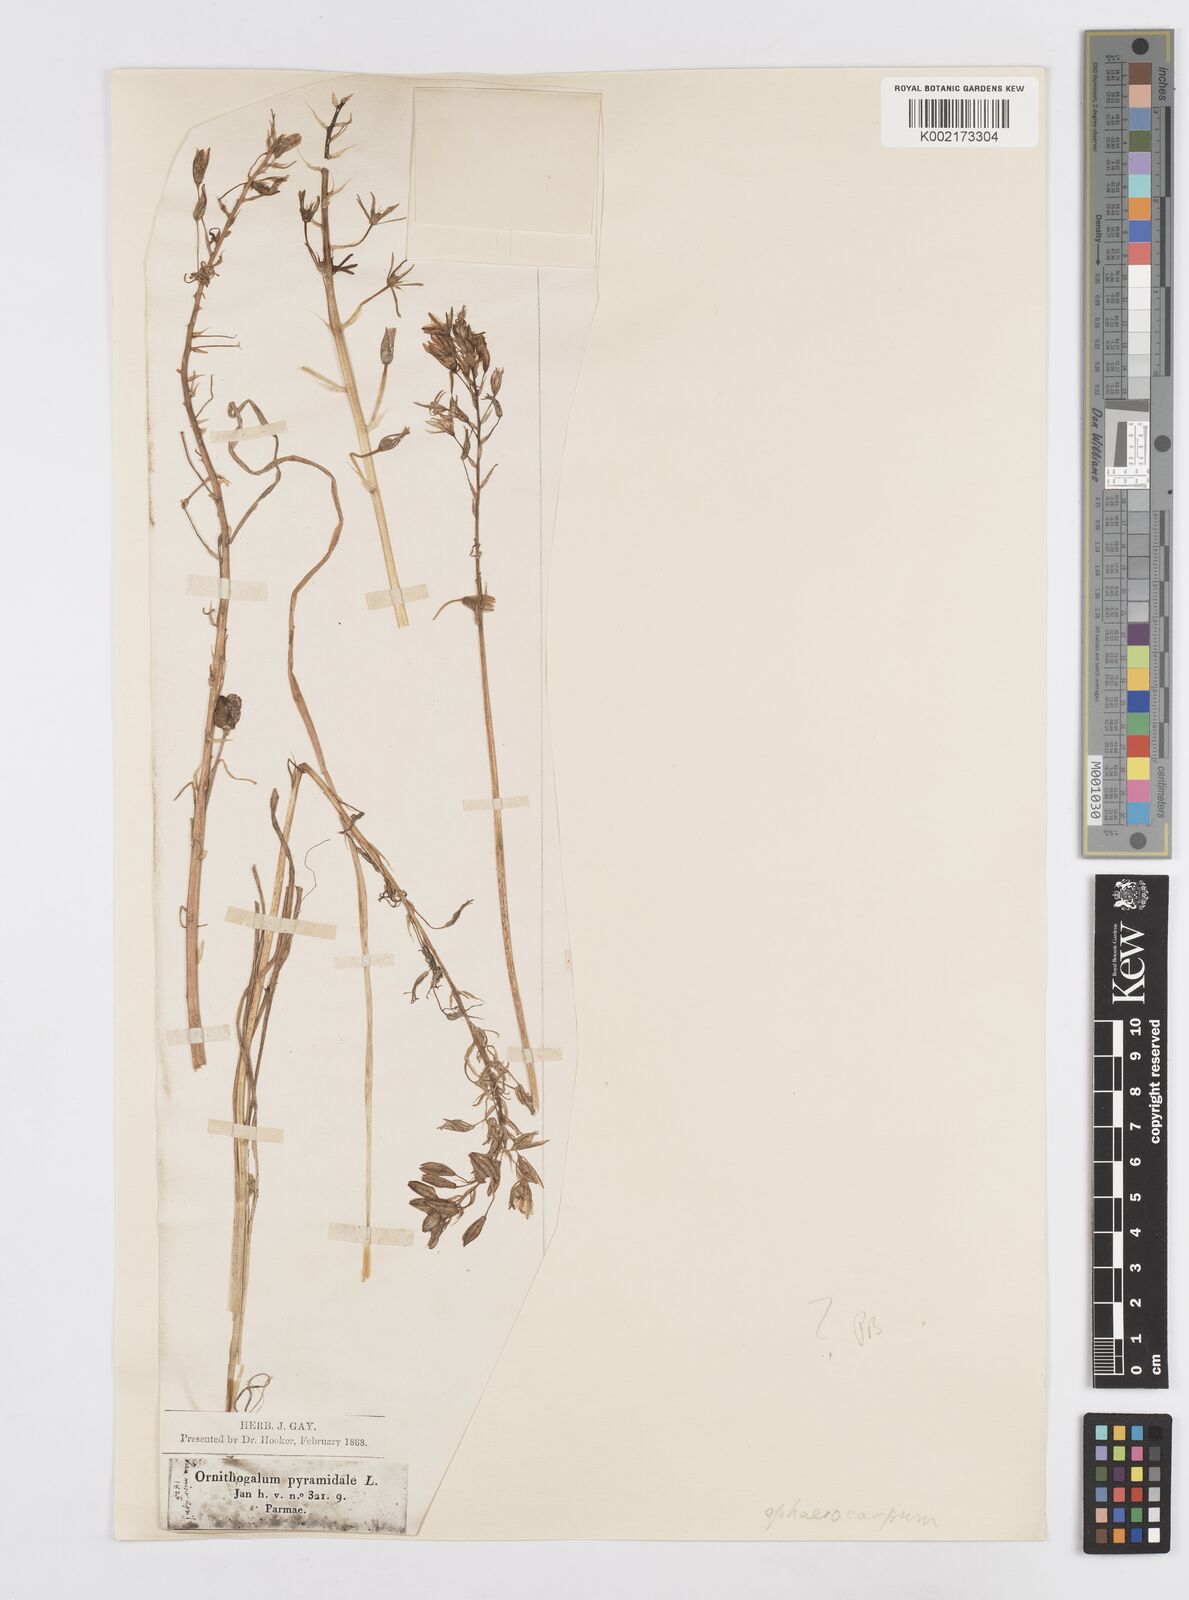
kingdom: Plantae
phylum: Tracheophyta
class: Liliopsida
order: Asparagales
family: Asparagaceae
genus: Ornithogalum
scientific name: Ornithogalum sphaerocarpum
